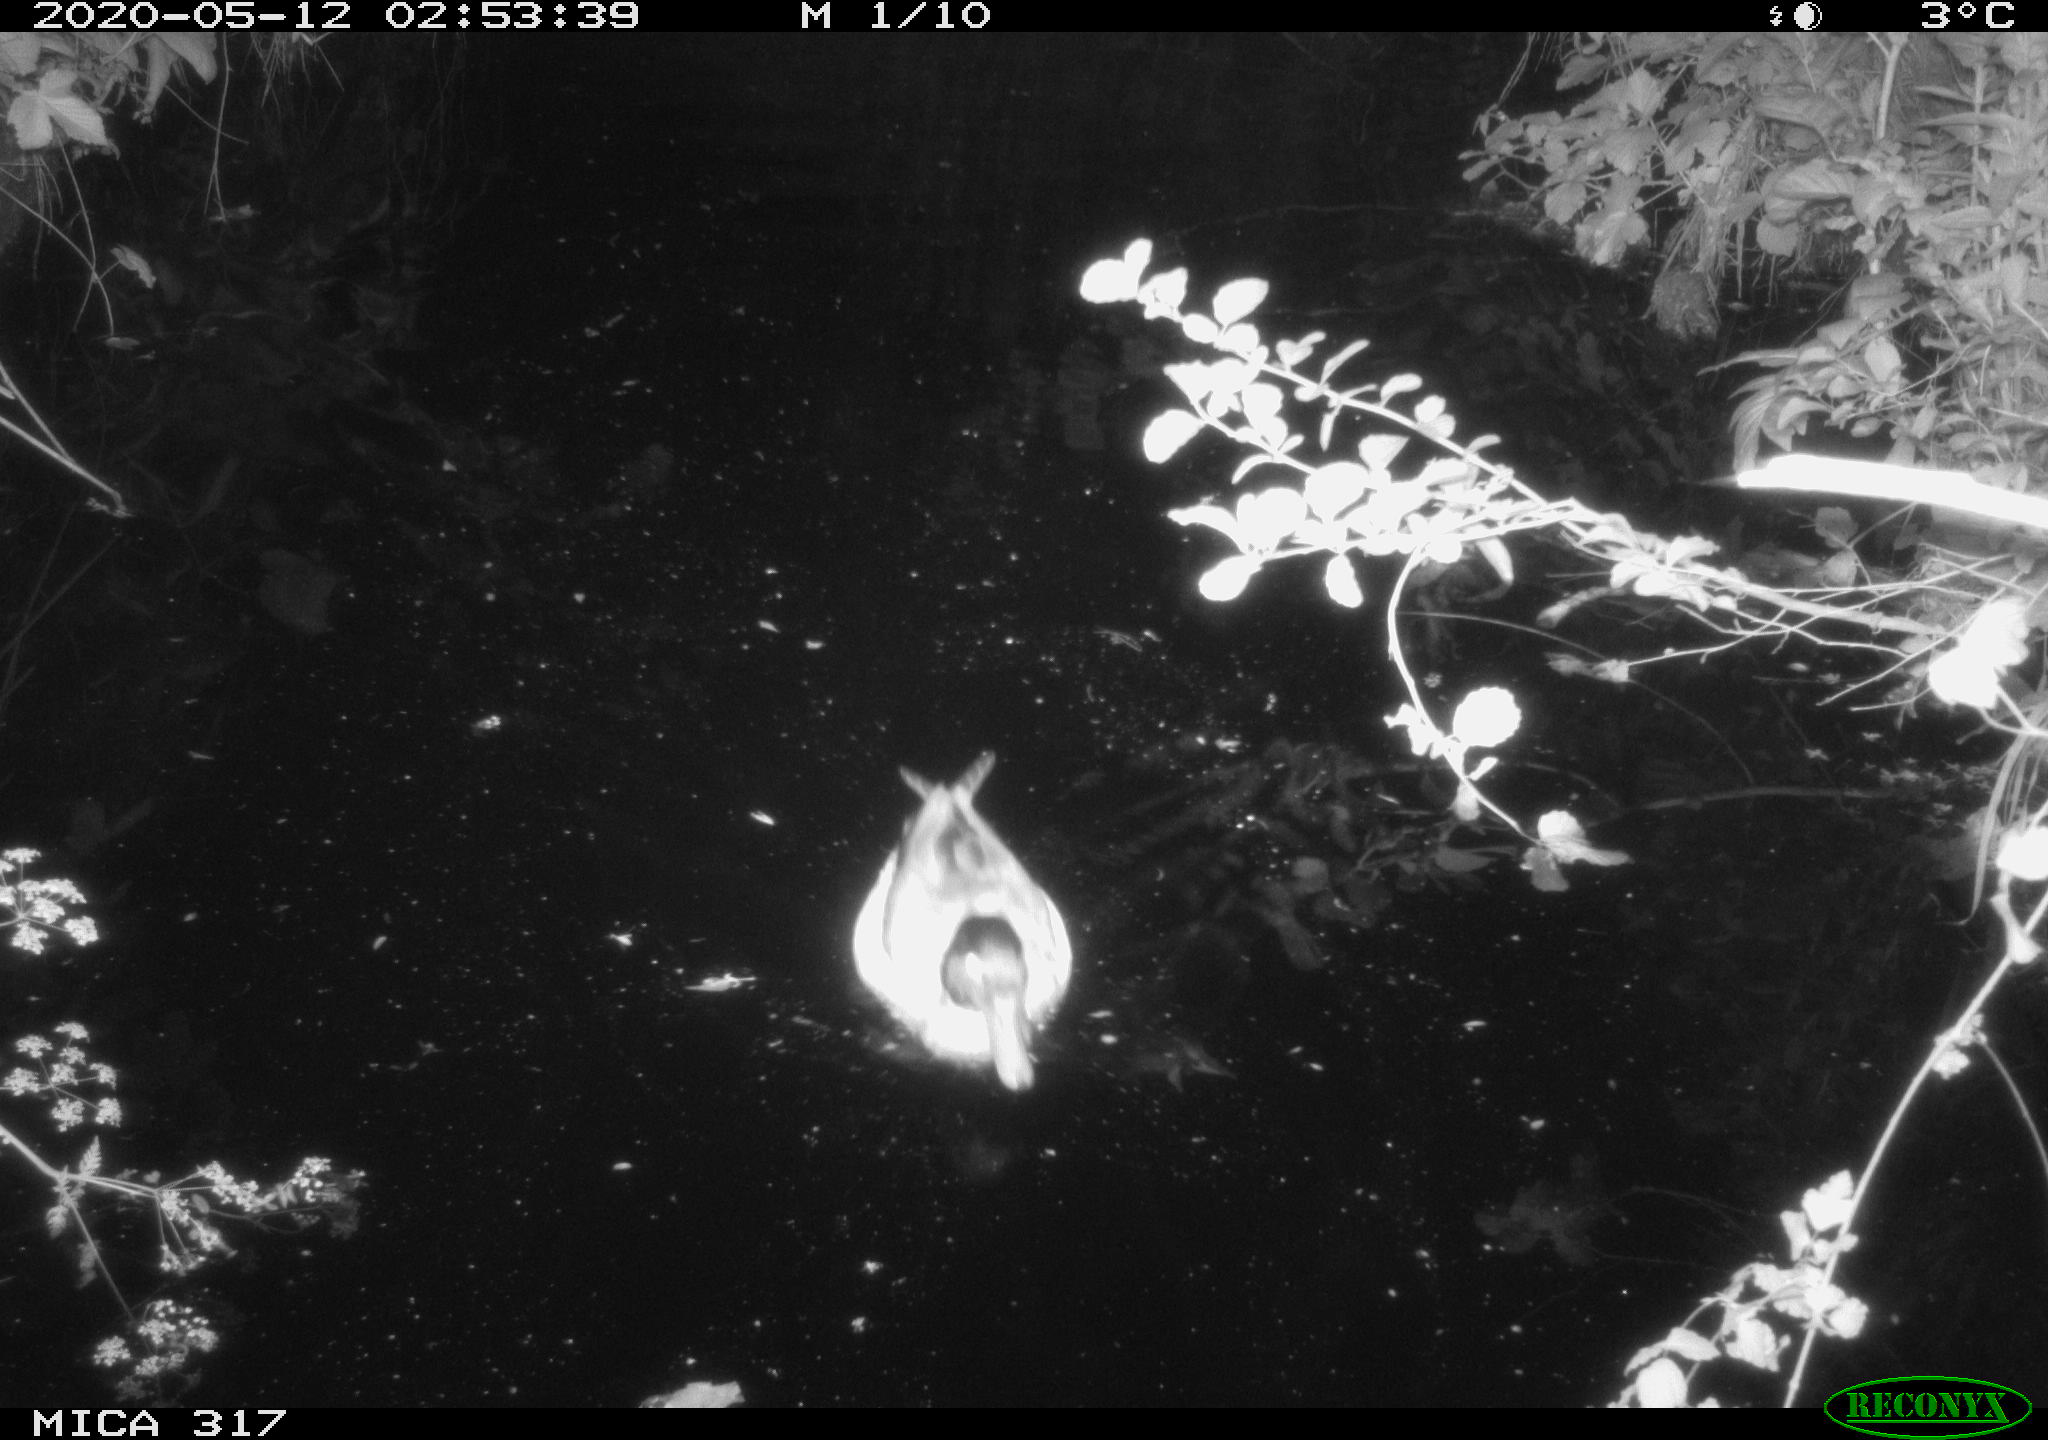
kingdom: Animalia
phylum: Chordata
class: Aves
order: Anseriformes
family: Anatidae
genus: Anas
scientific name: Anas platyrhynchos
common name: Mallard
